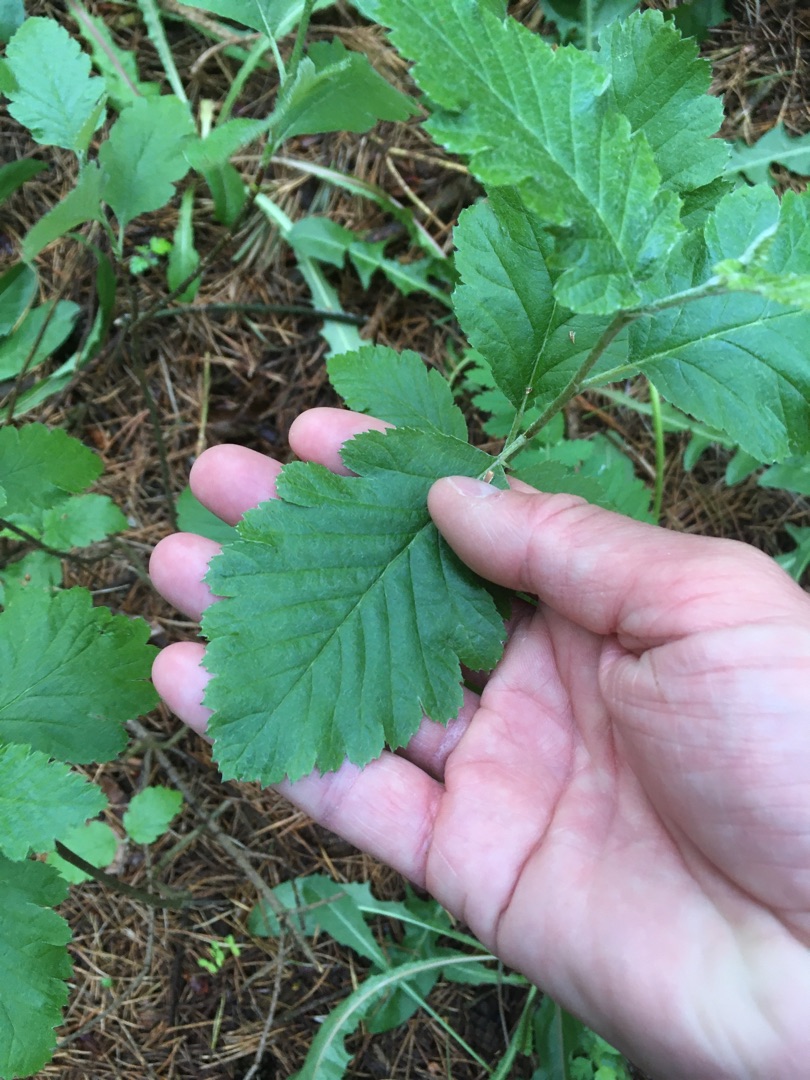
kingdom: Plantae
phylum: Tracheophyta
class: Magnoliopsida
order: Rosales
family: Rosaceae
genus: Scandosorbus
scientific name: Scandosorbus intermedia
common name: Selje-røn
